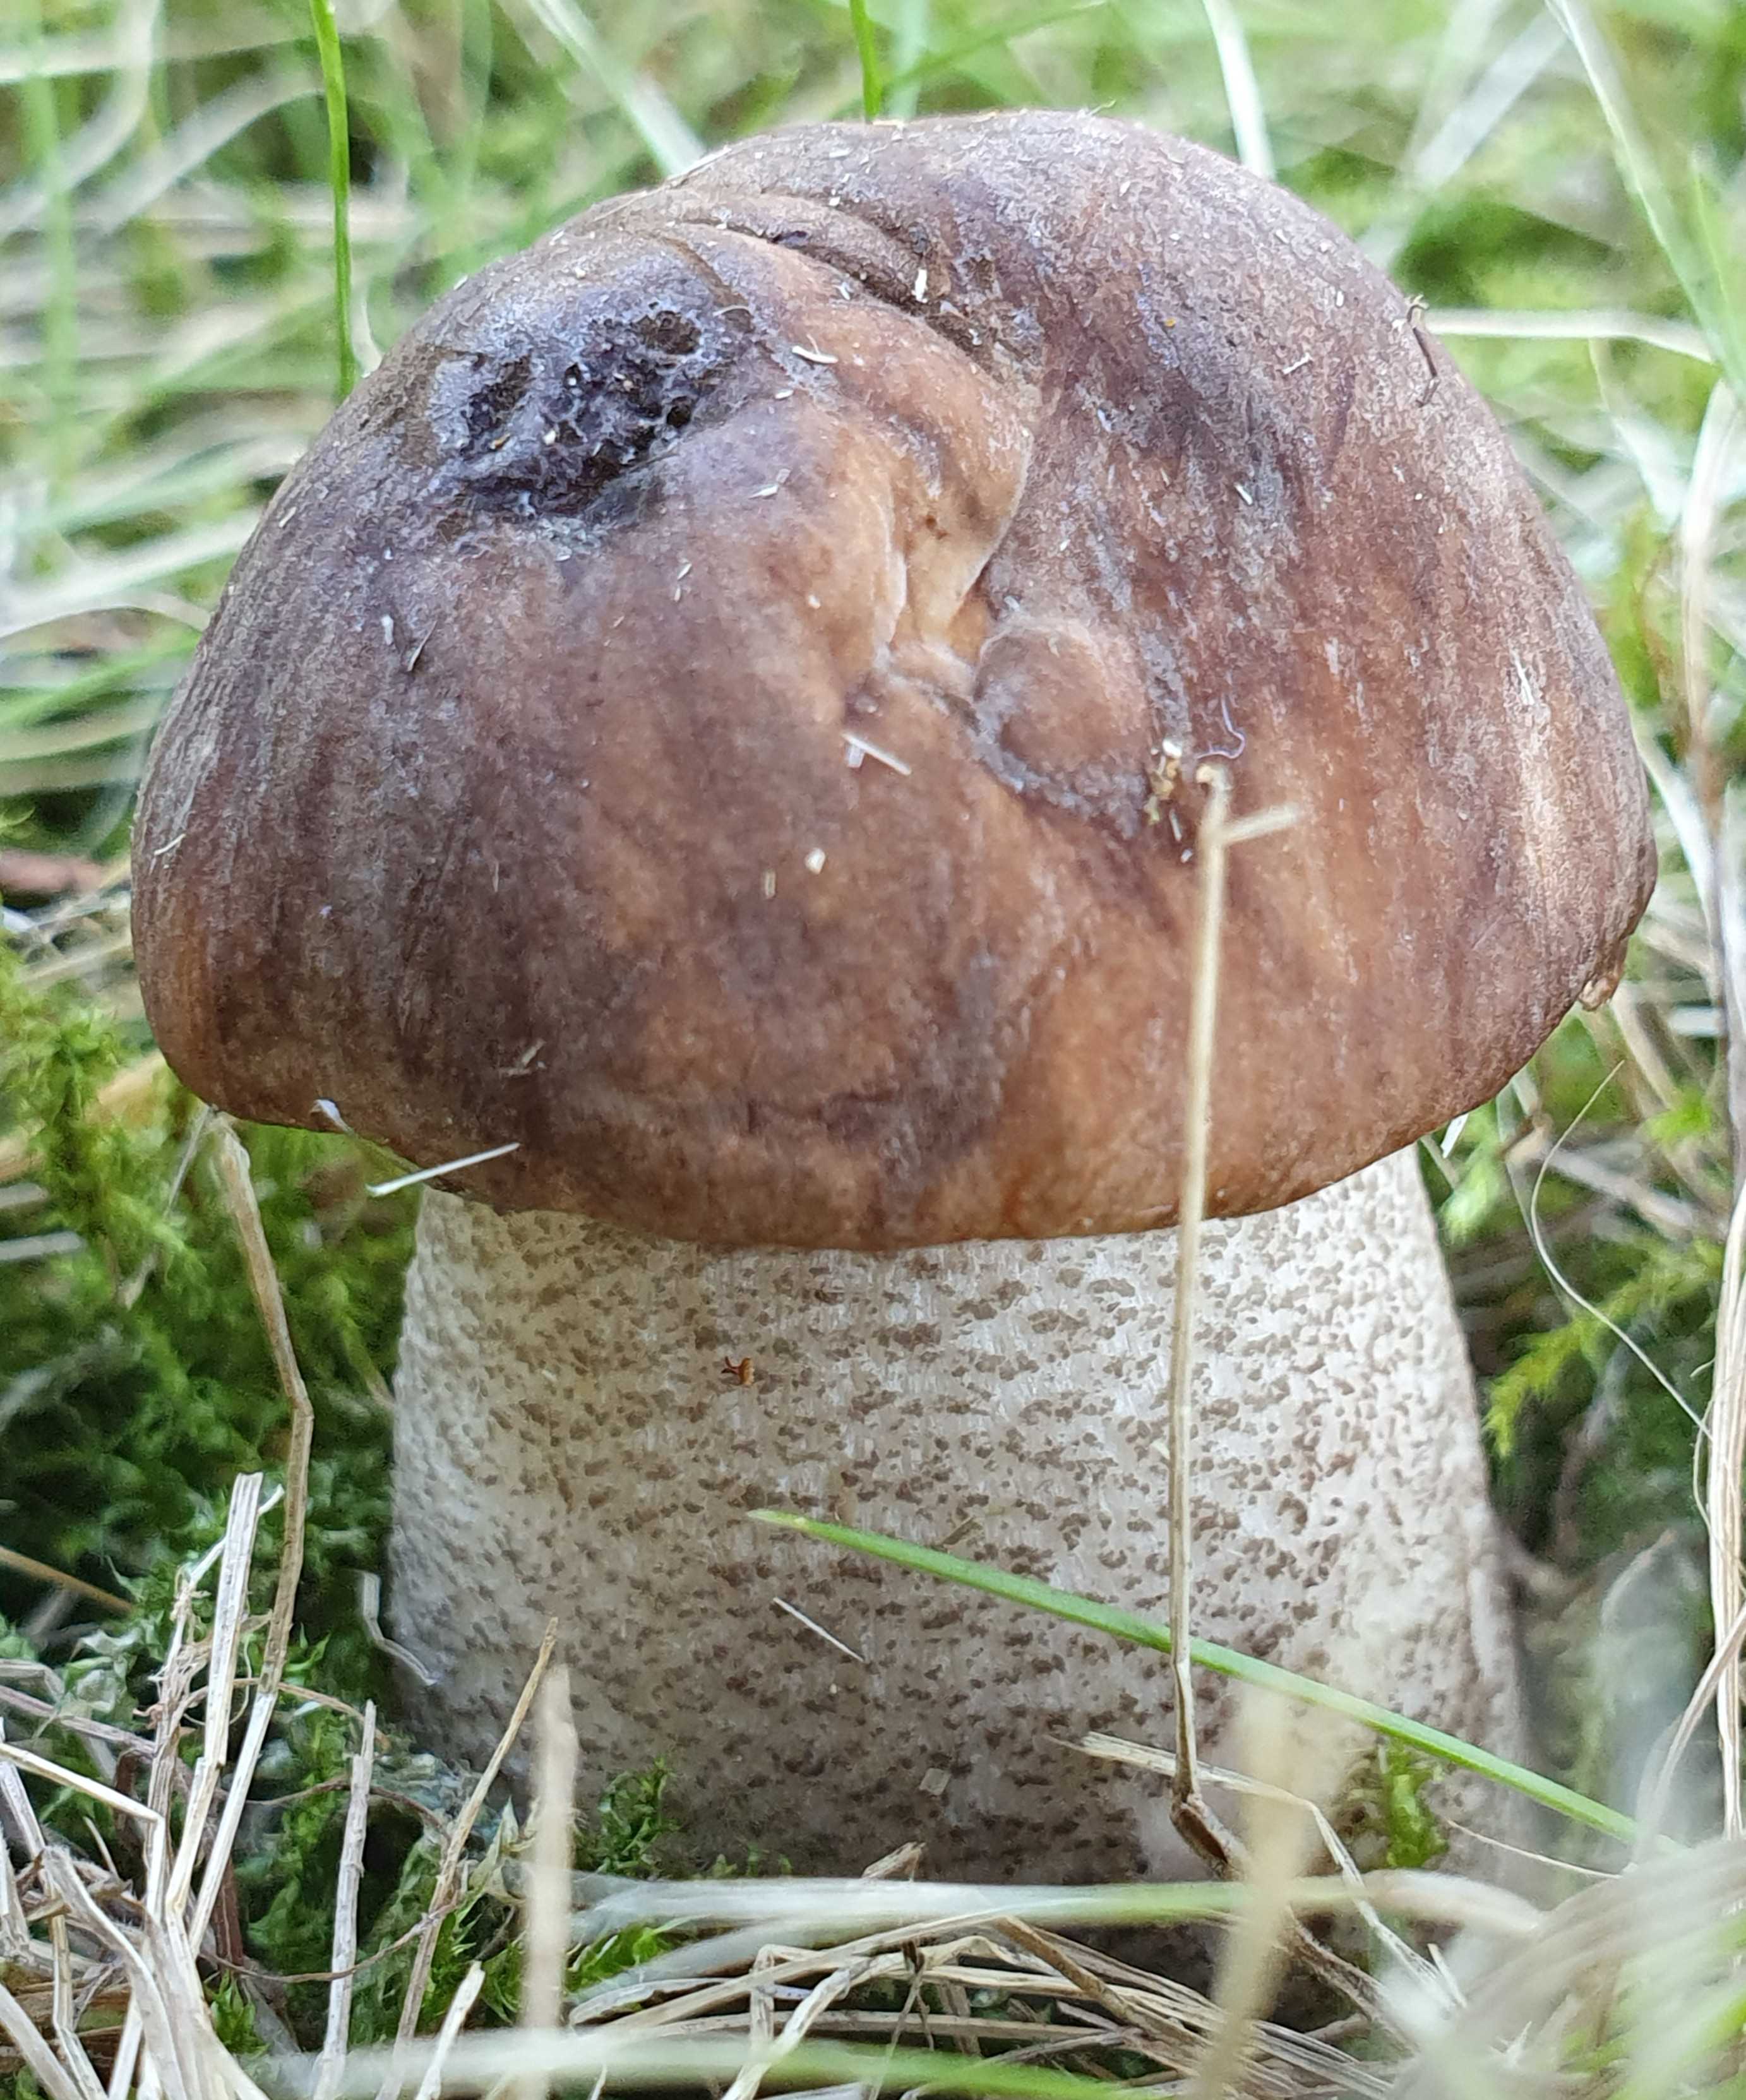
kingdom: Fungi
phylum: Basidiomycota
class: Agaricomycetes
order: Boletales
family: Boletaceae
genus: Leccinum
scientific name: Leccinum scabrum
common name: brun skælrørhat
